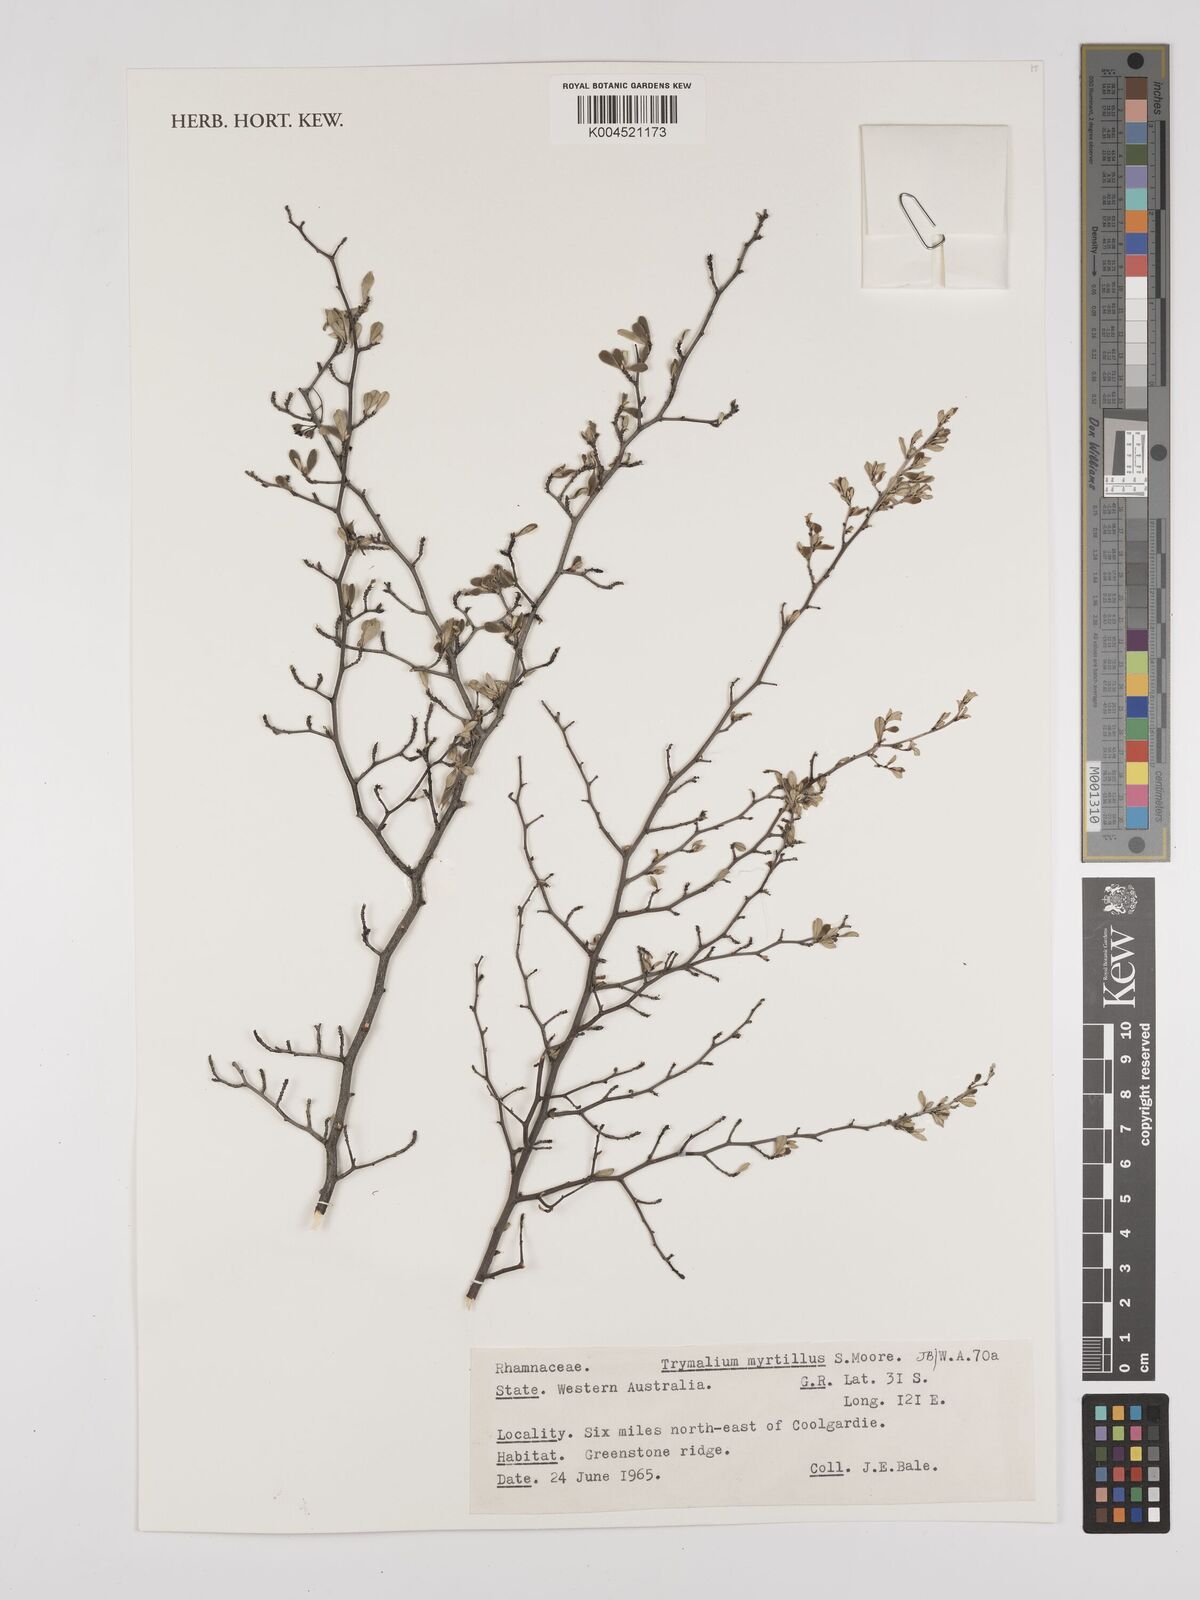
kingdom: Plantae
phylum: Tracheophyta
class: Magnoliopsida
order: Rosales
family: Rhamnaceae
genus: Trymalium
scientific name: Trymalium myrtillus
